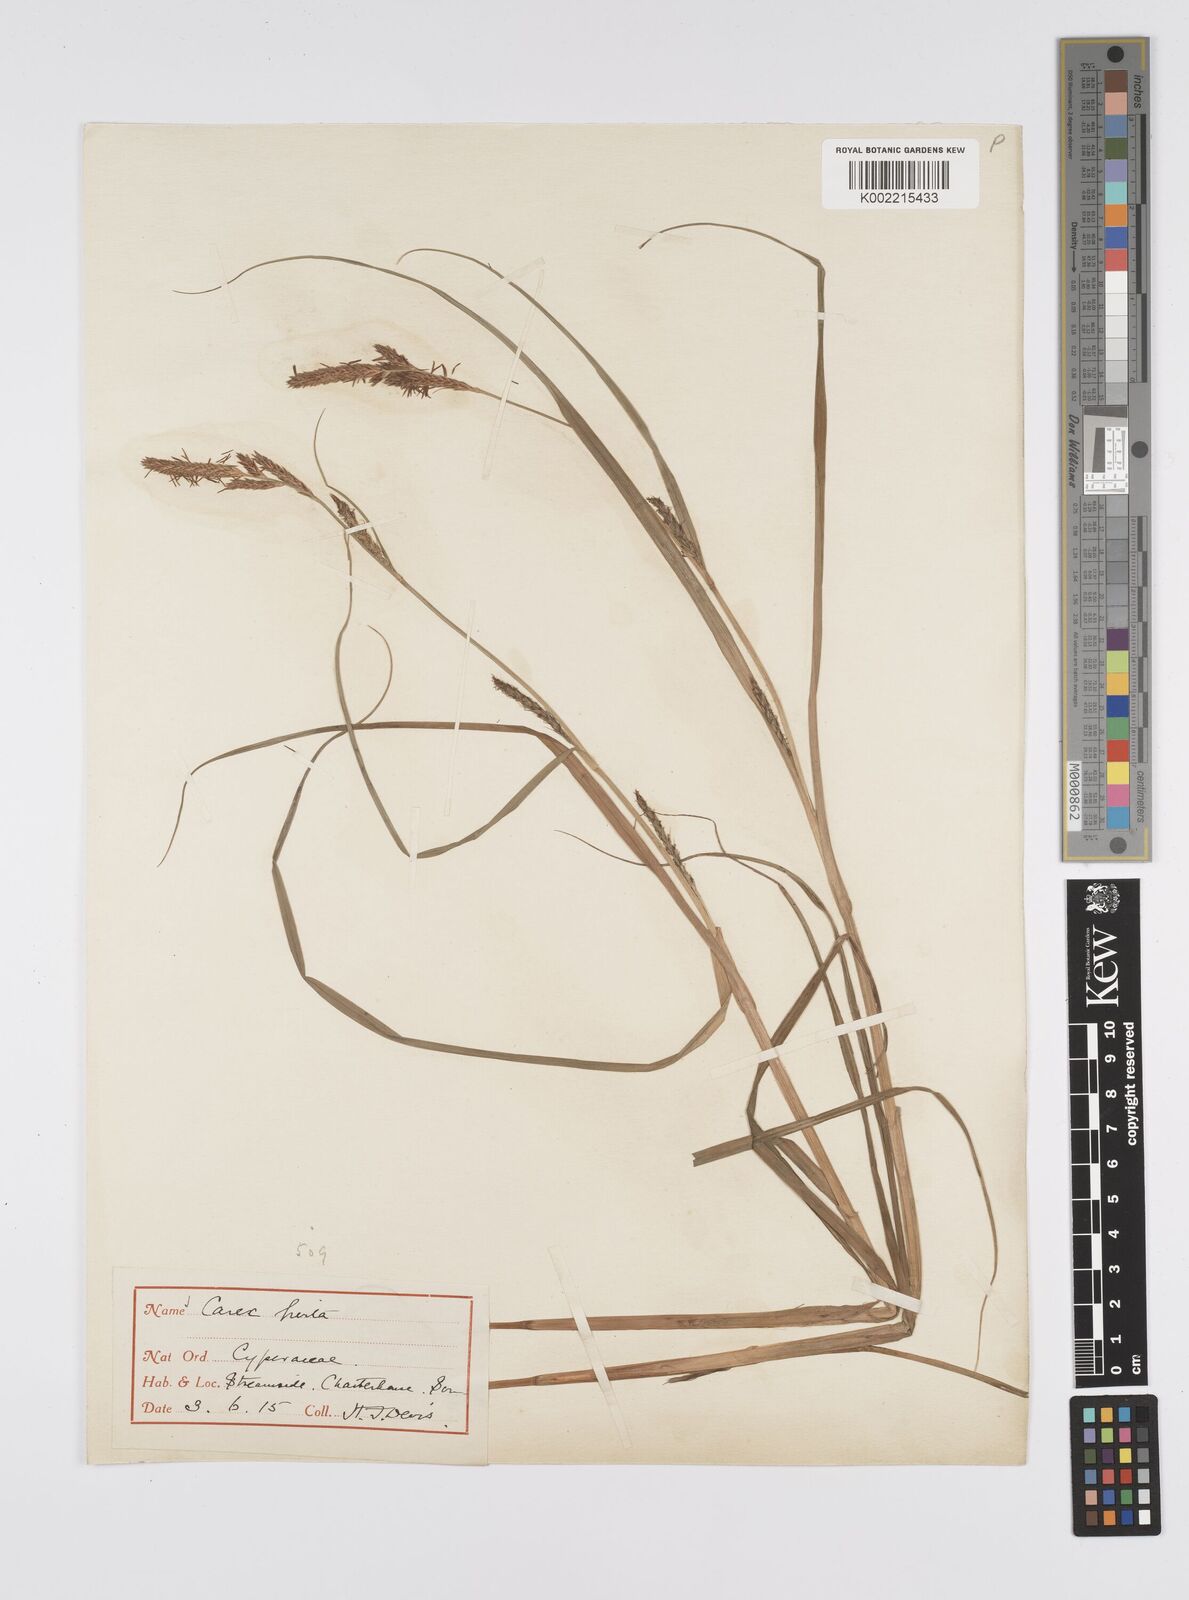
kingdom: Plantae
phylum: Tracheophyta
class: Liliopsida
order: Poales
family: Cyperaceae
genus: Carex
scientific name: Carex hirta
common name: Hairy sedge
